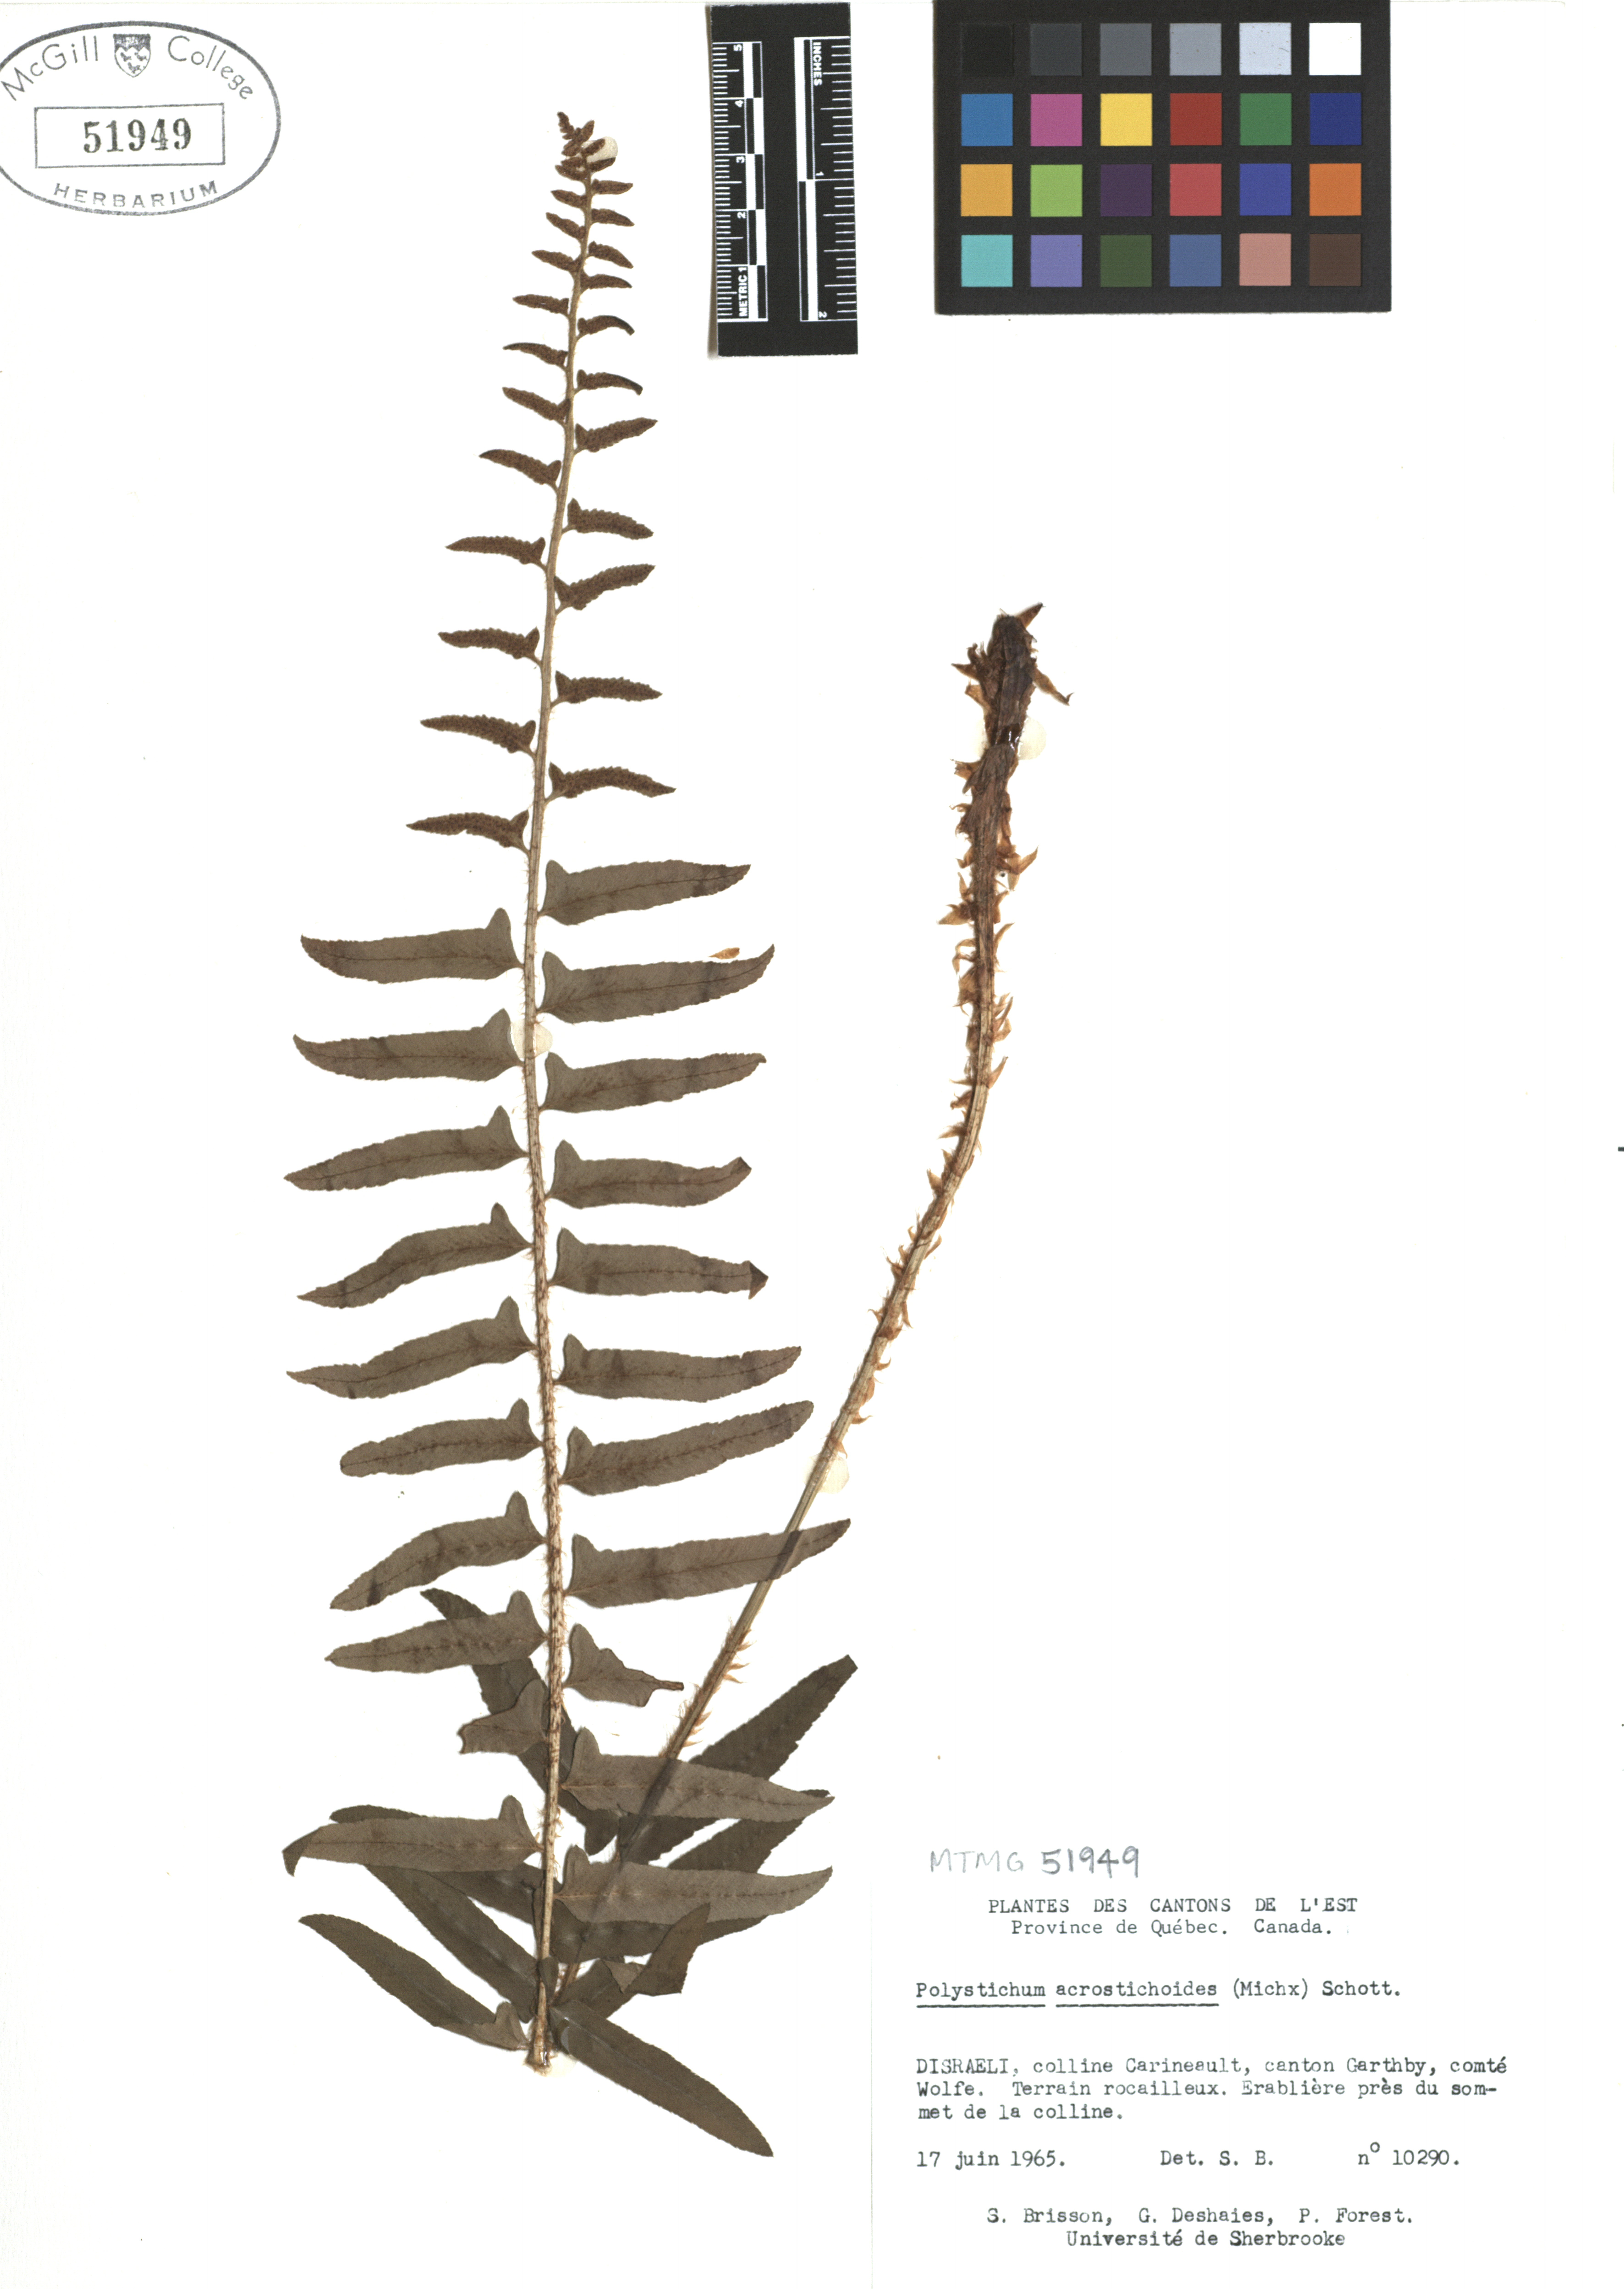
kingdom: Plantae
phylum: Tracheophyta
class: Polypodiopsida
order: Polypodiales
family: Dryopteridaceae
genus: Polystichum
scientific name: Polystichum acrostichoides
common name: Christmas fern
